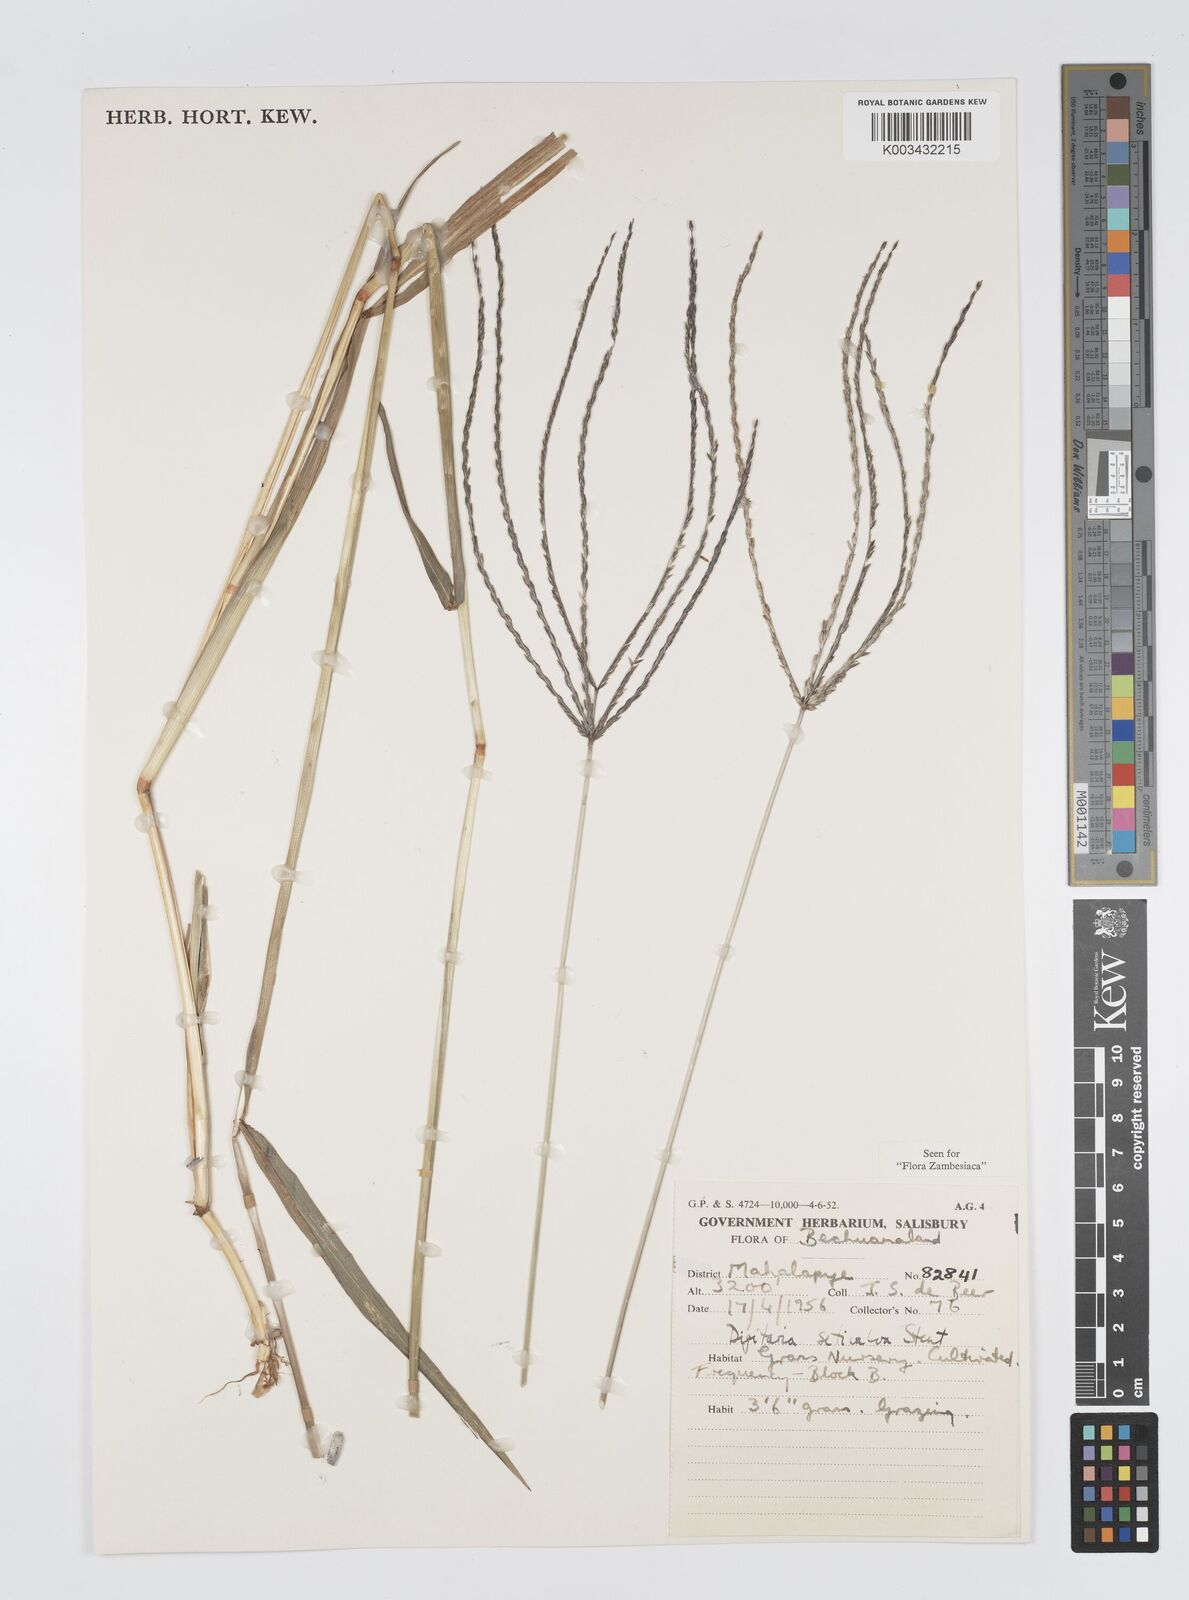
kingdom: Plantae
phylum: Tracheophyta
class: Liliopsida
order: Poales
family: Poaceae
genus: Digitaria
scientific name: Digitaria milanjiana
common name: Madagascar crabgrass
